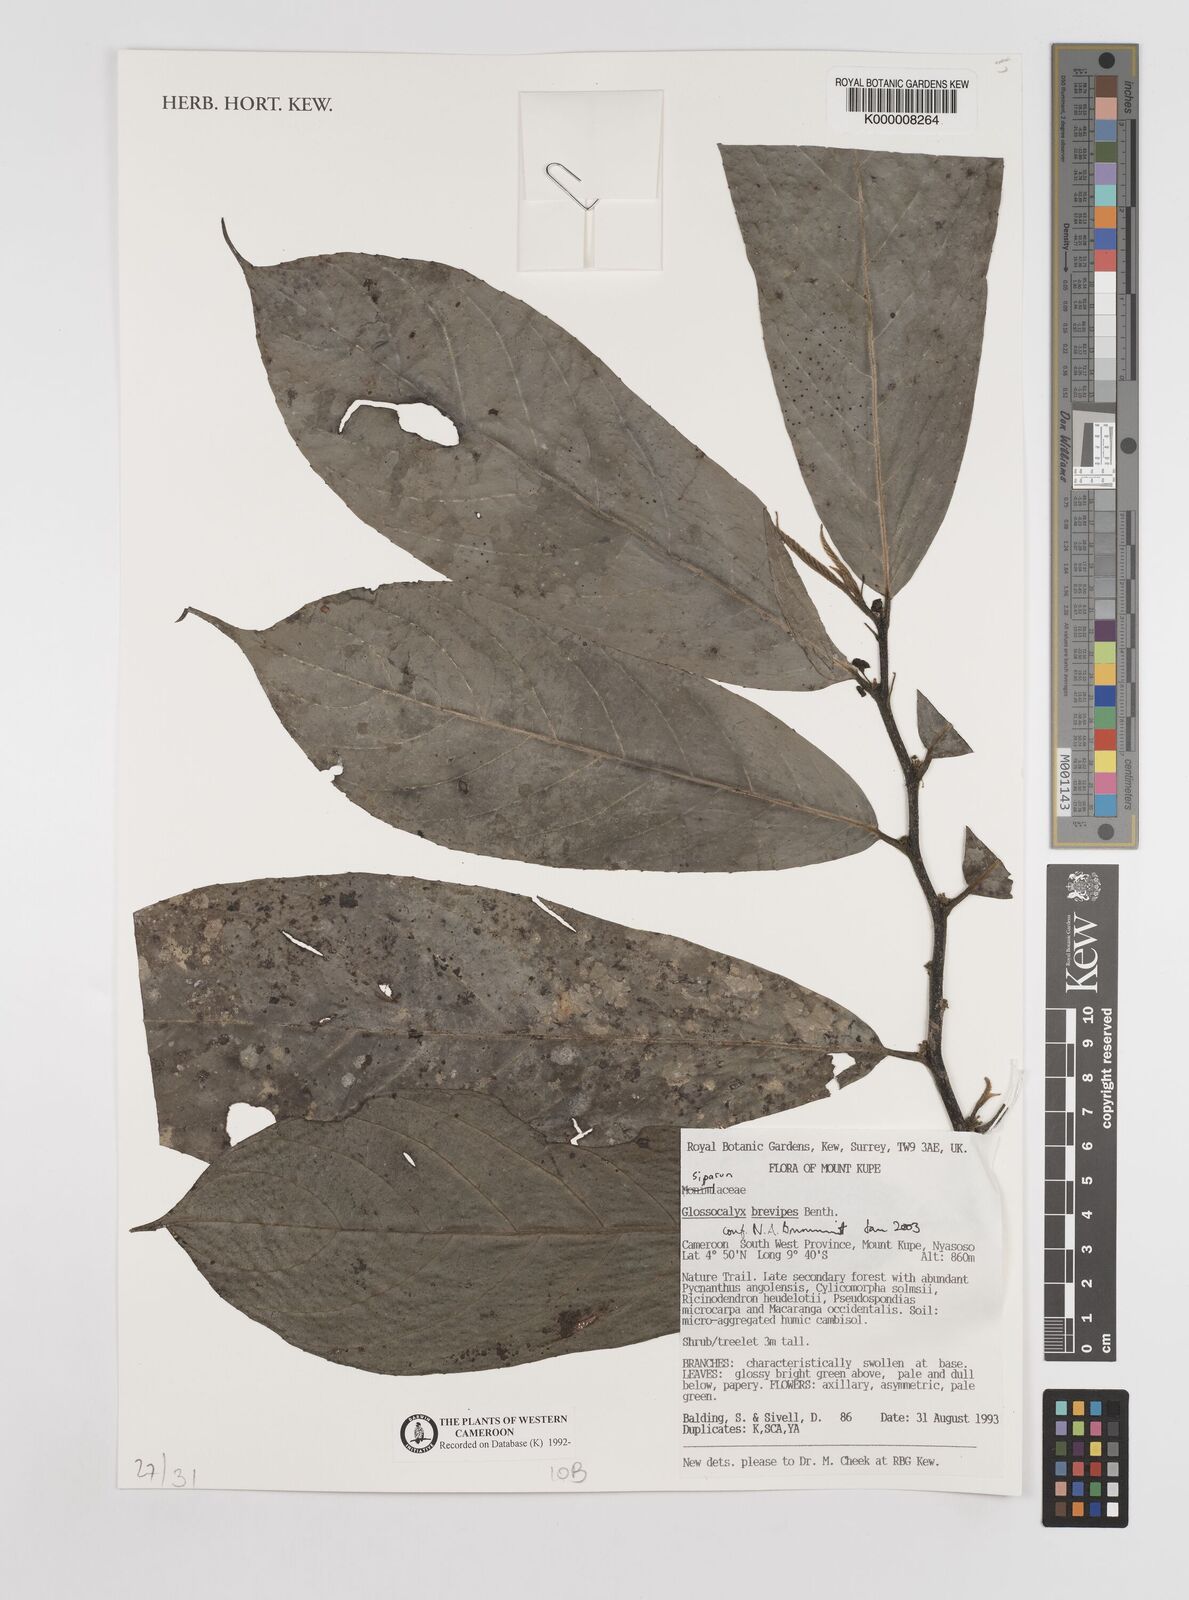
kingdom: Plantae
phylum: Tracheophyta
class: Magnoliopsida
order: Laurales
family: Siparunaceae
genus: Glossocalyx
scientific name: Glossocalyx brevipes
